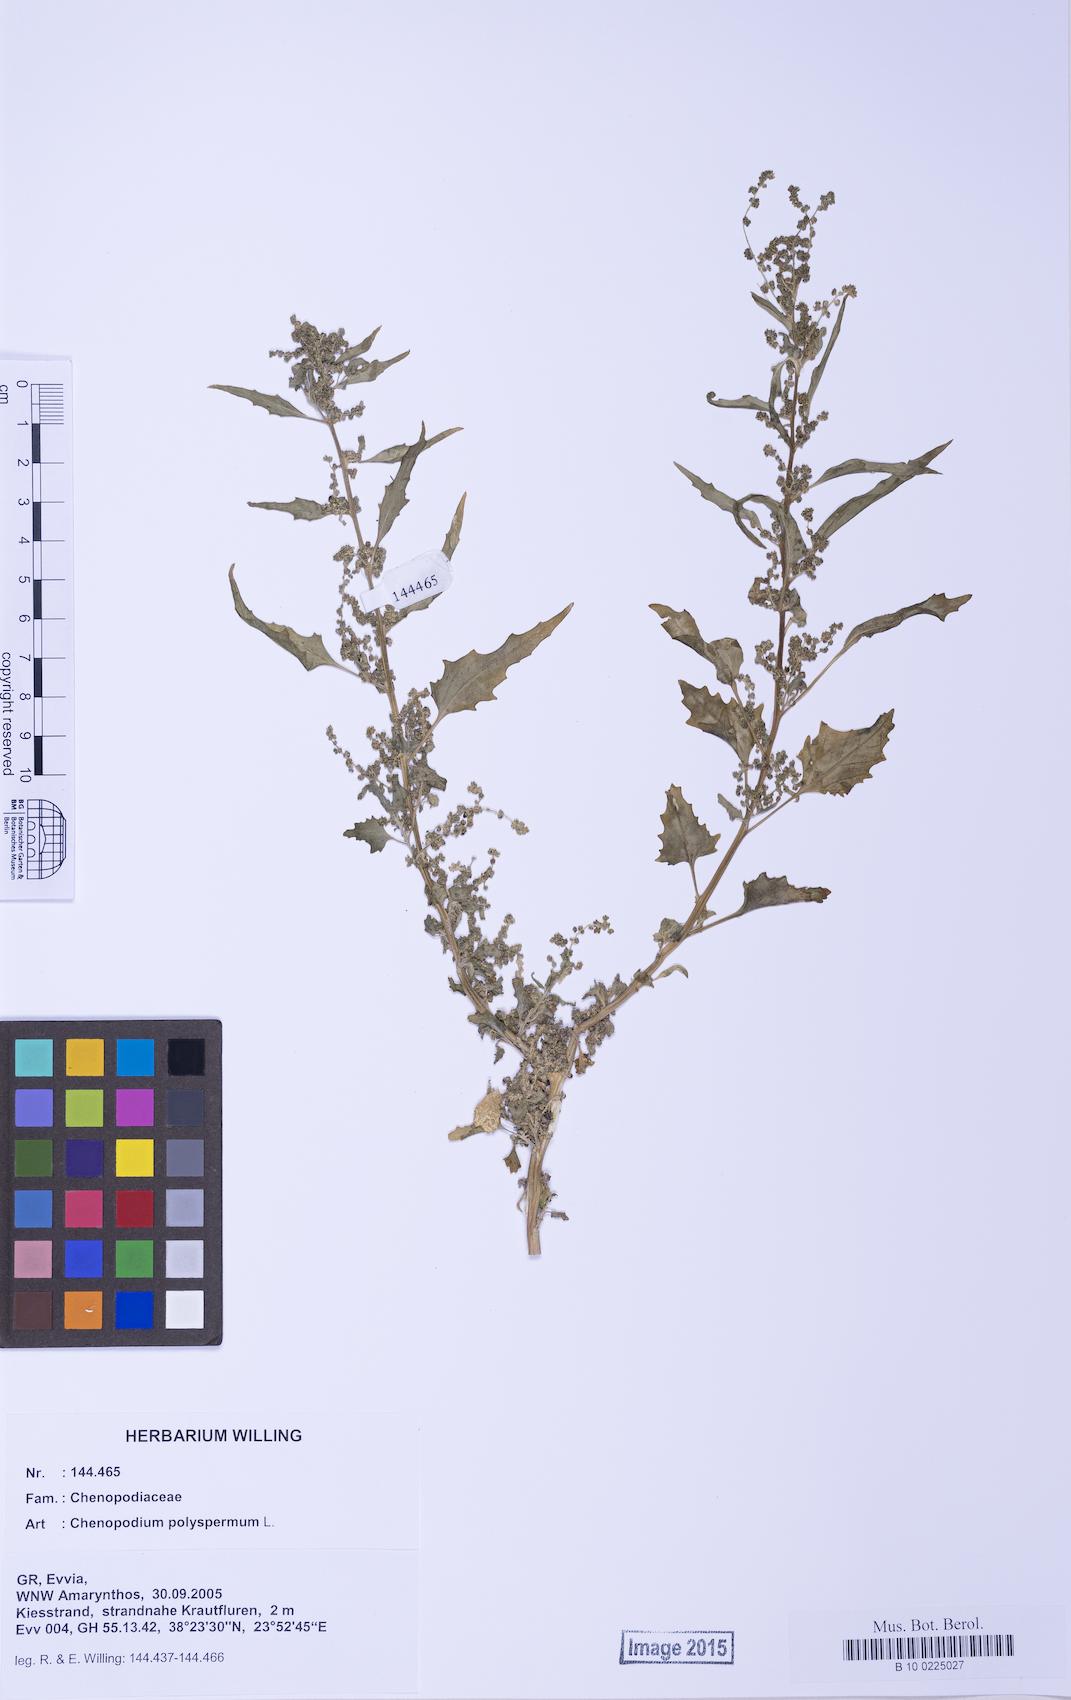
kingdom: Plantae
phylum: Tracheophyta
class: Magnoliopsida
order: Caryophyllales
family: Amaranthaceae
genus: Chenopodiastrum
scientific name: Chenopodiastrum murale
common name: Sowbane
